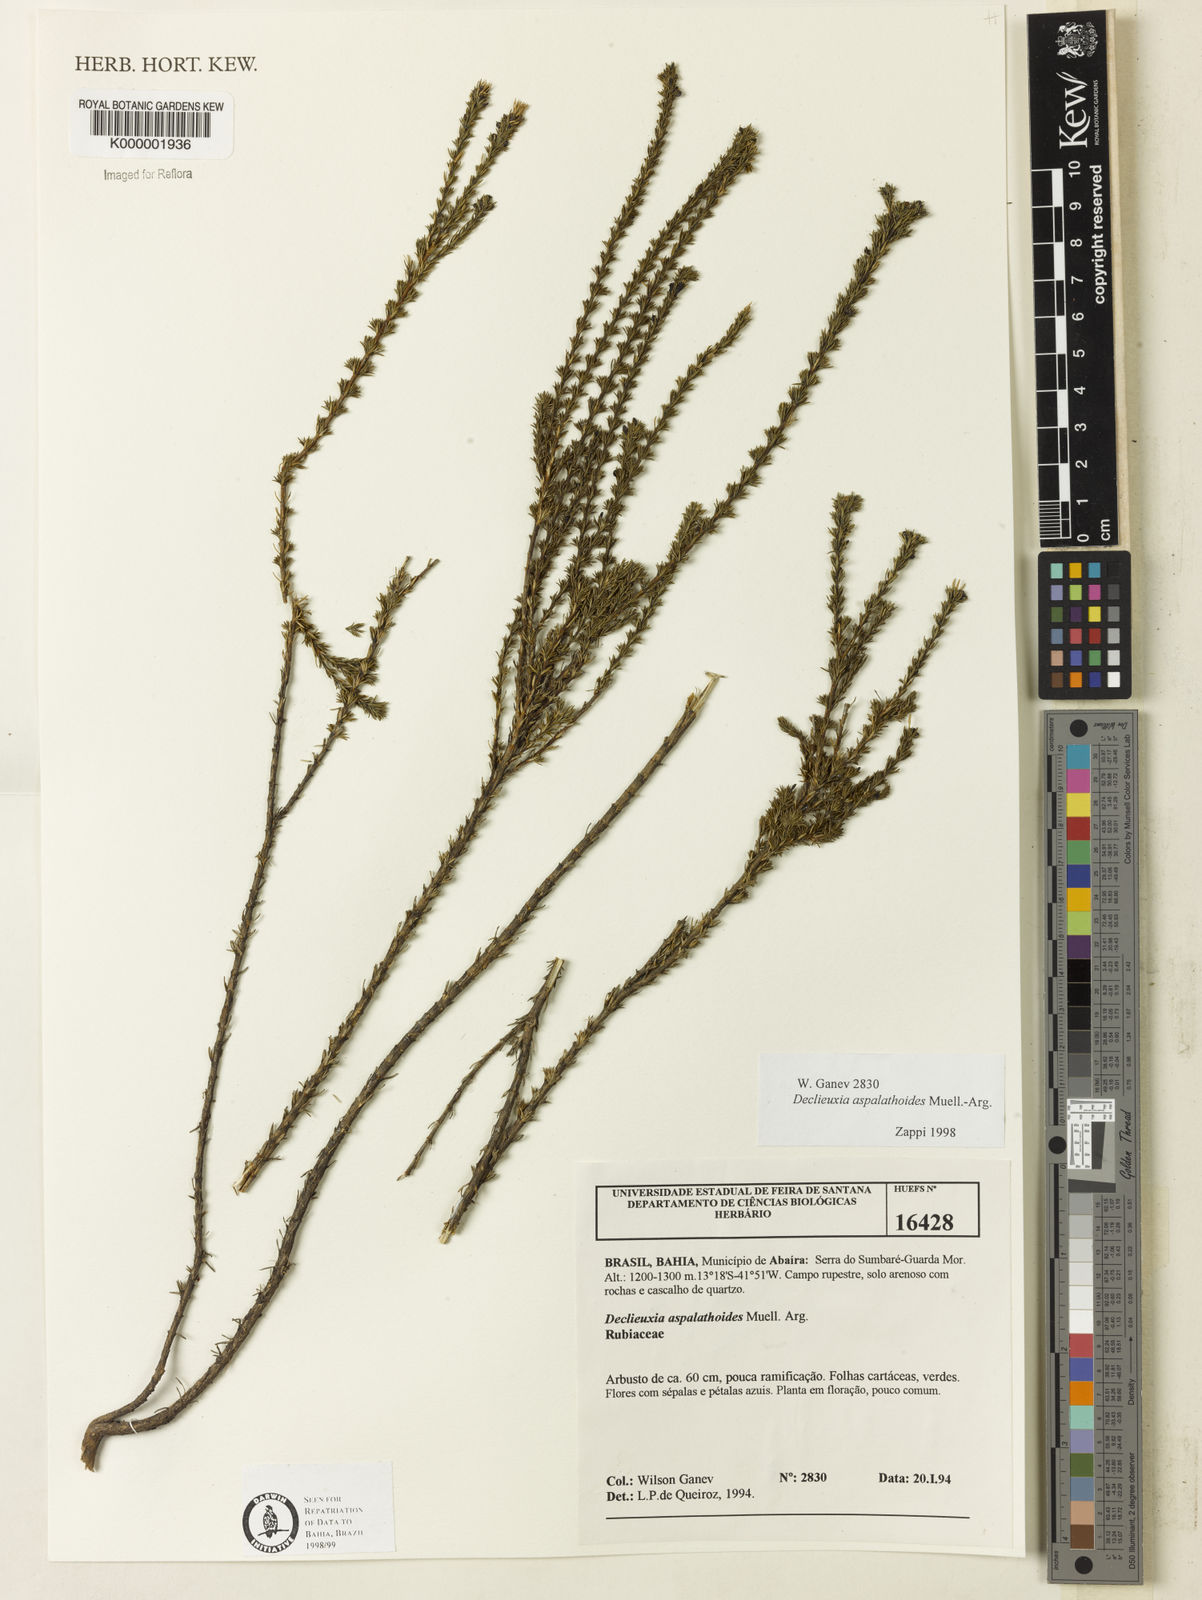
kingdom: Plantae
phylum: Tracheophyta
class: Magnoliopsida
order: Gentianales
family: Rubiaceae
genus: Declieuxia
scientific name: Declieuxia aspalathoides
